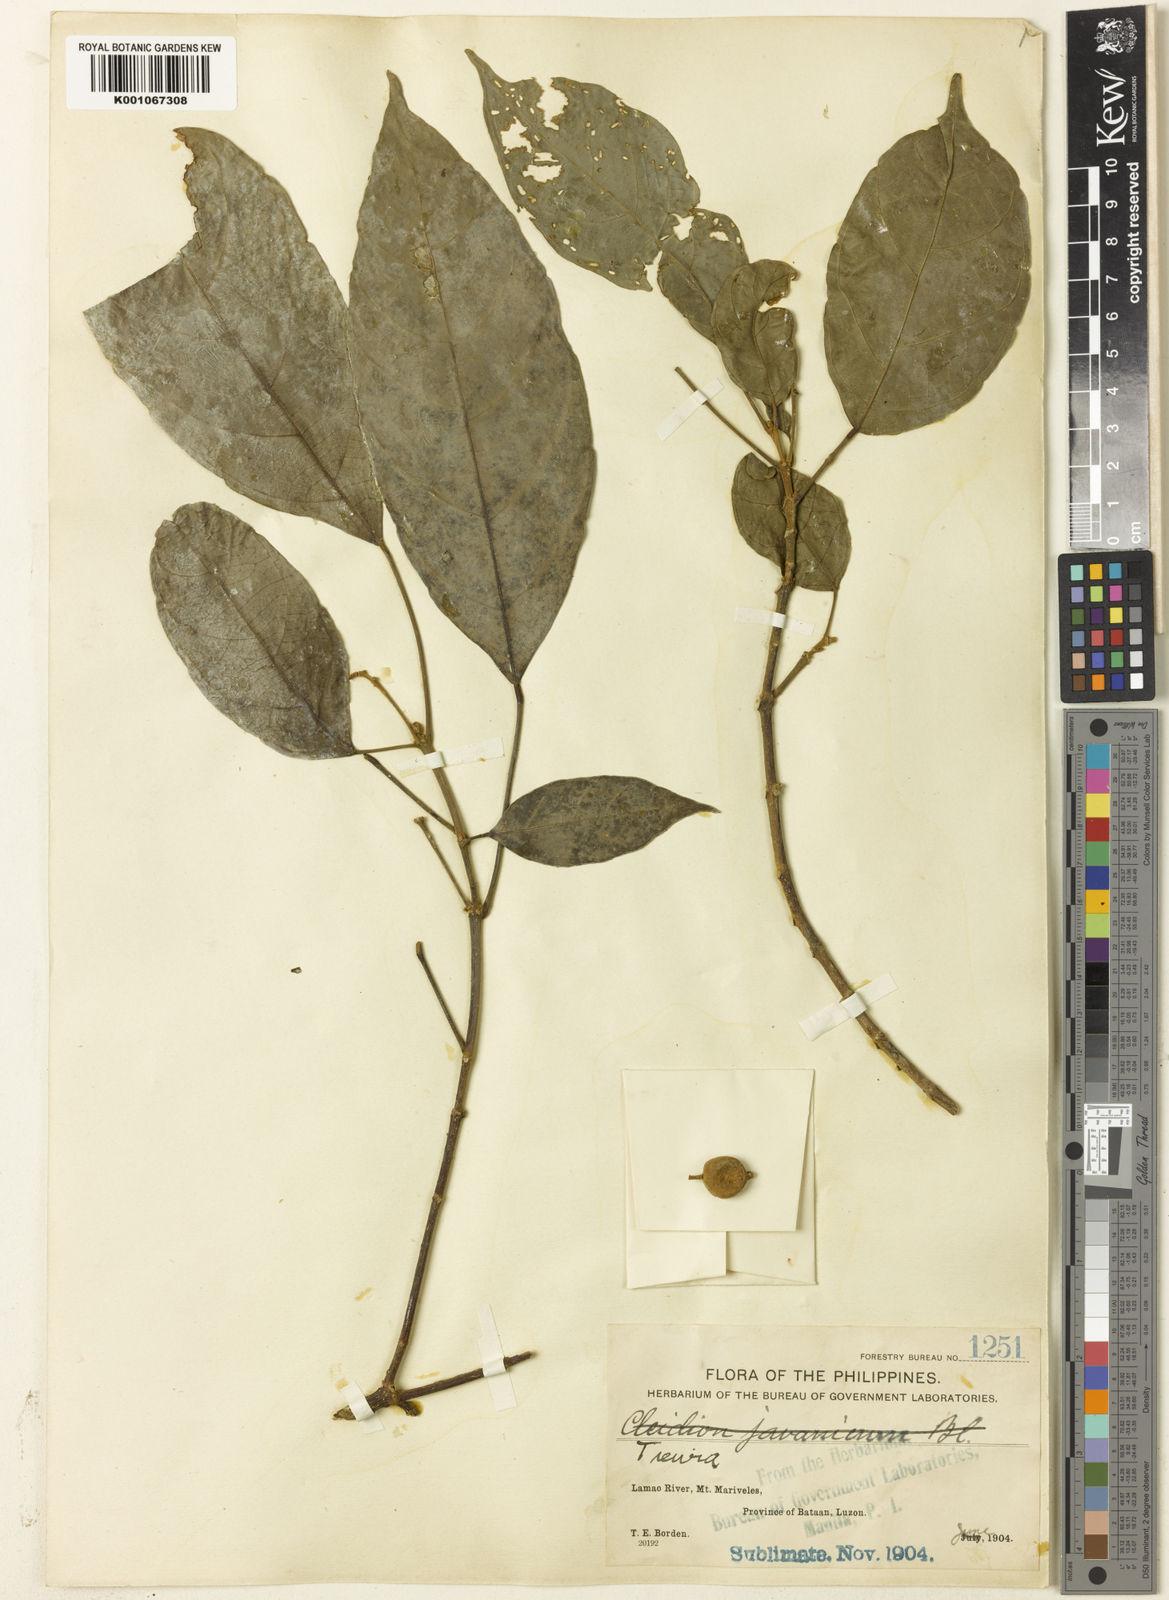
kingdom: Plantae
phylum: Tracheophyta
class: Magnoliopsida
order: Malpighiales
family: Euphorbiaceae
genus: Mallotus
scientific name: Mallotus
